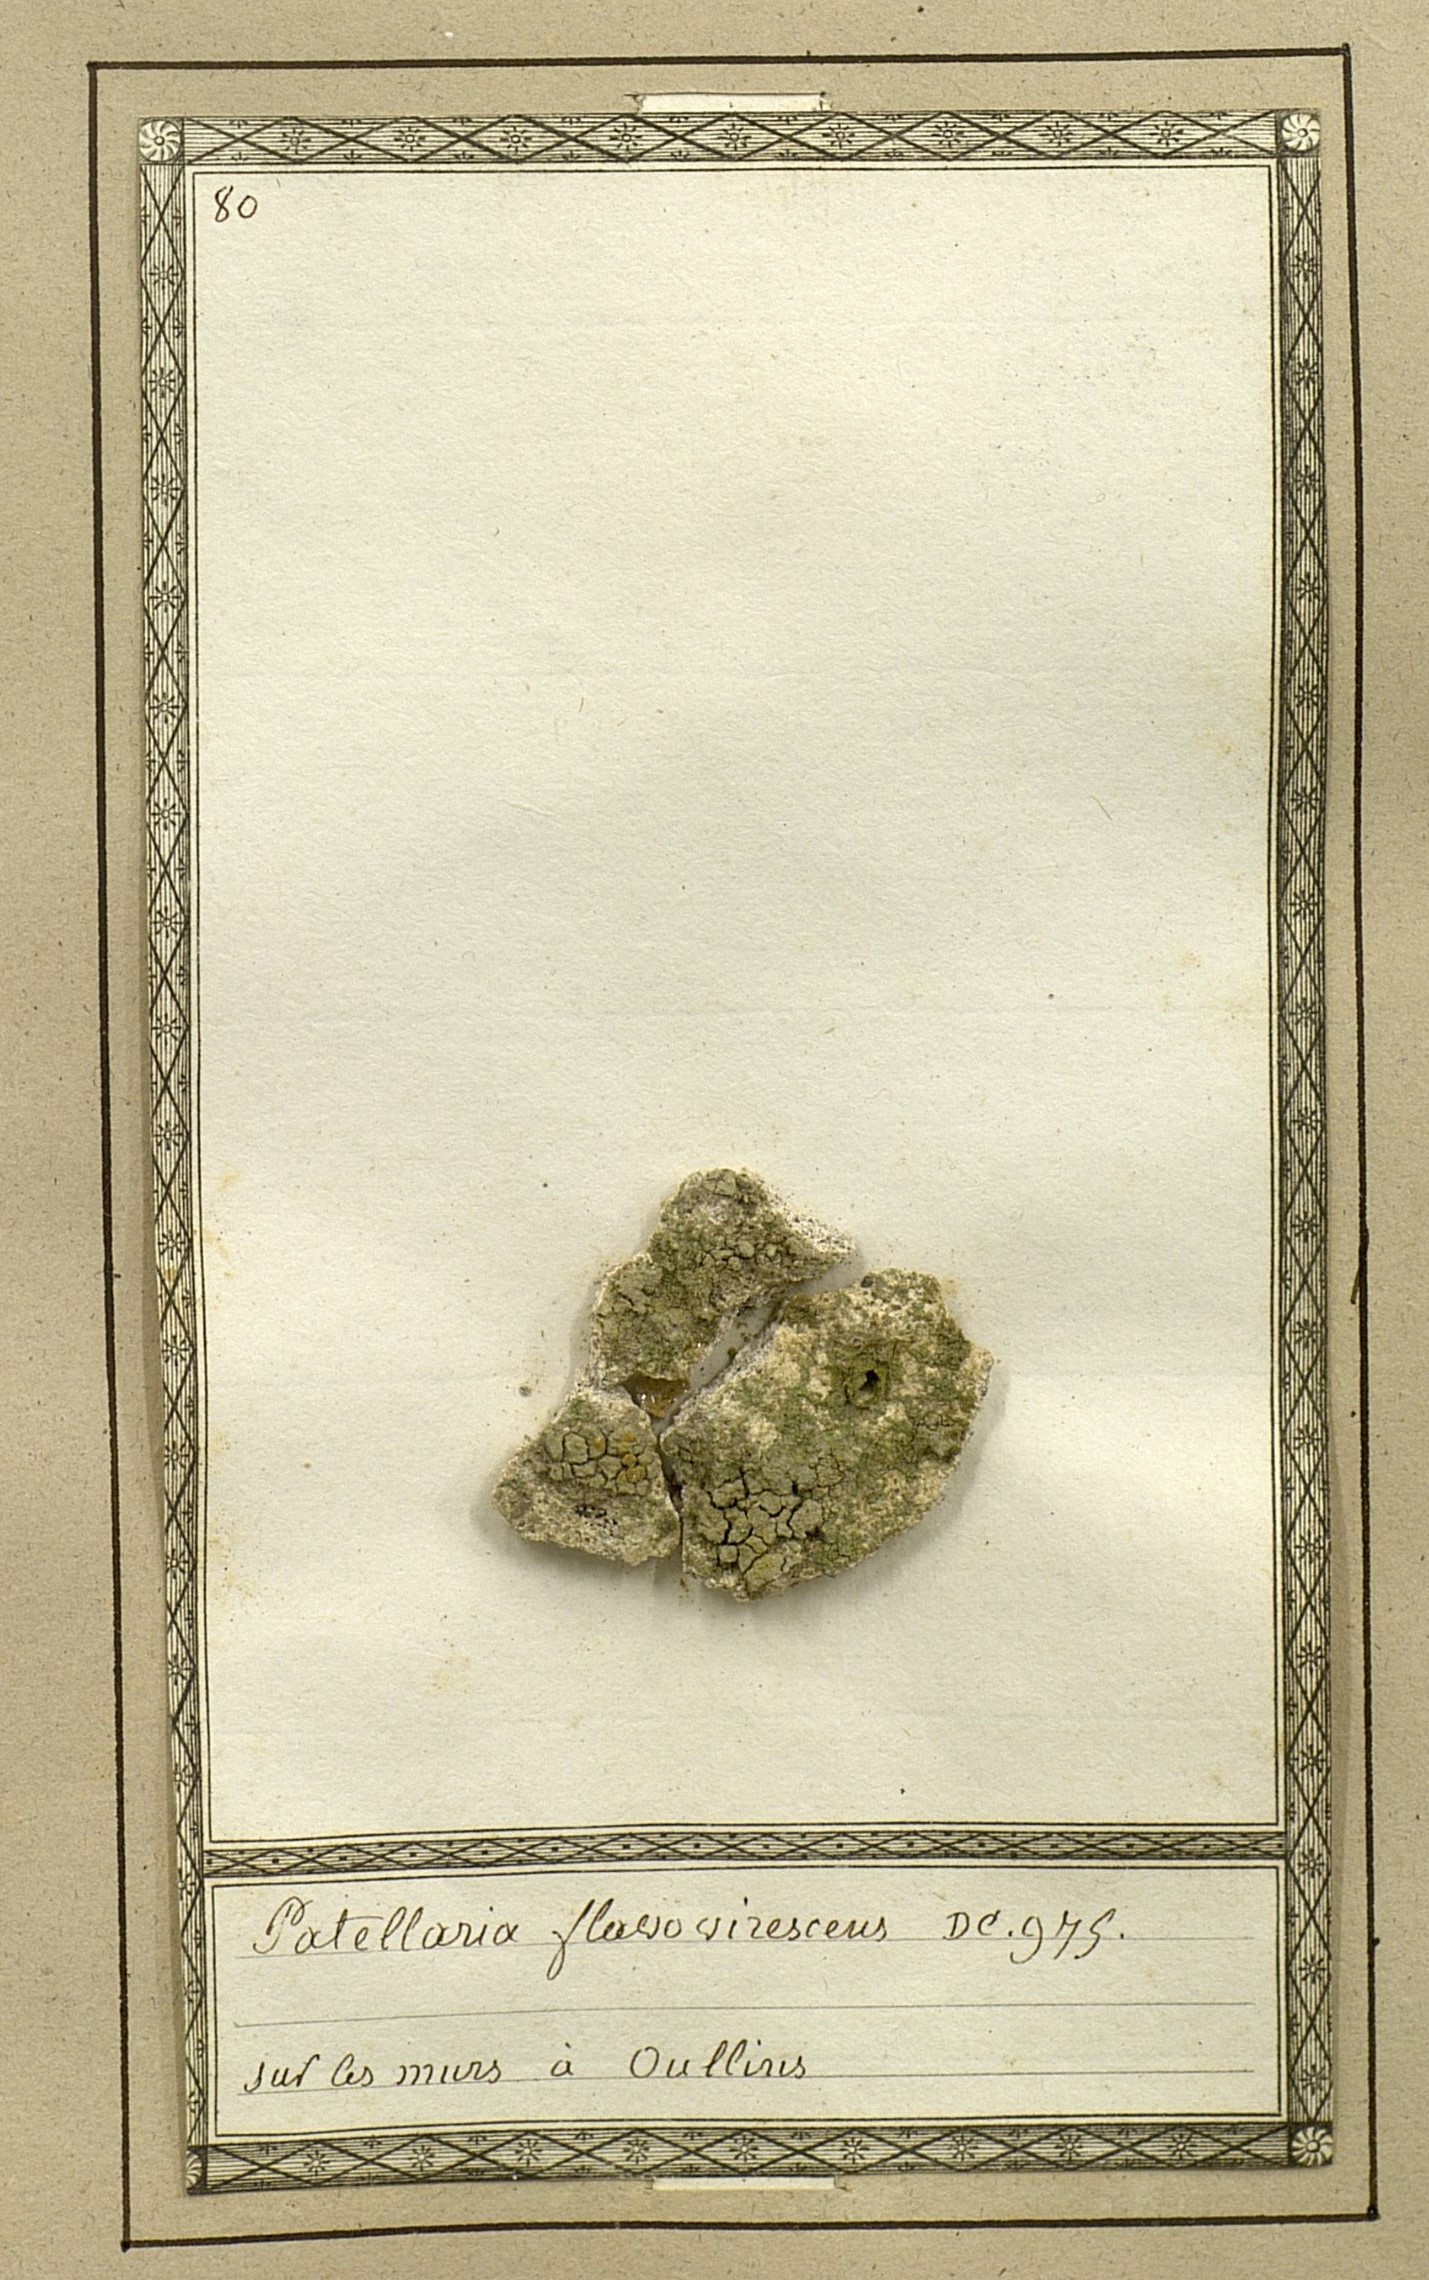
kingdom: Fungi
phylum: Ascomycota
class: Lecanoromycetes
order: Teloschistales
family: Teloschistaceae
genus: Gyalolechia
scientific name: Gyalolechia flavovirescens
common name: Sulphur firedot
